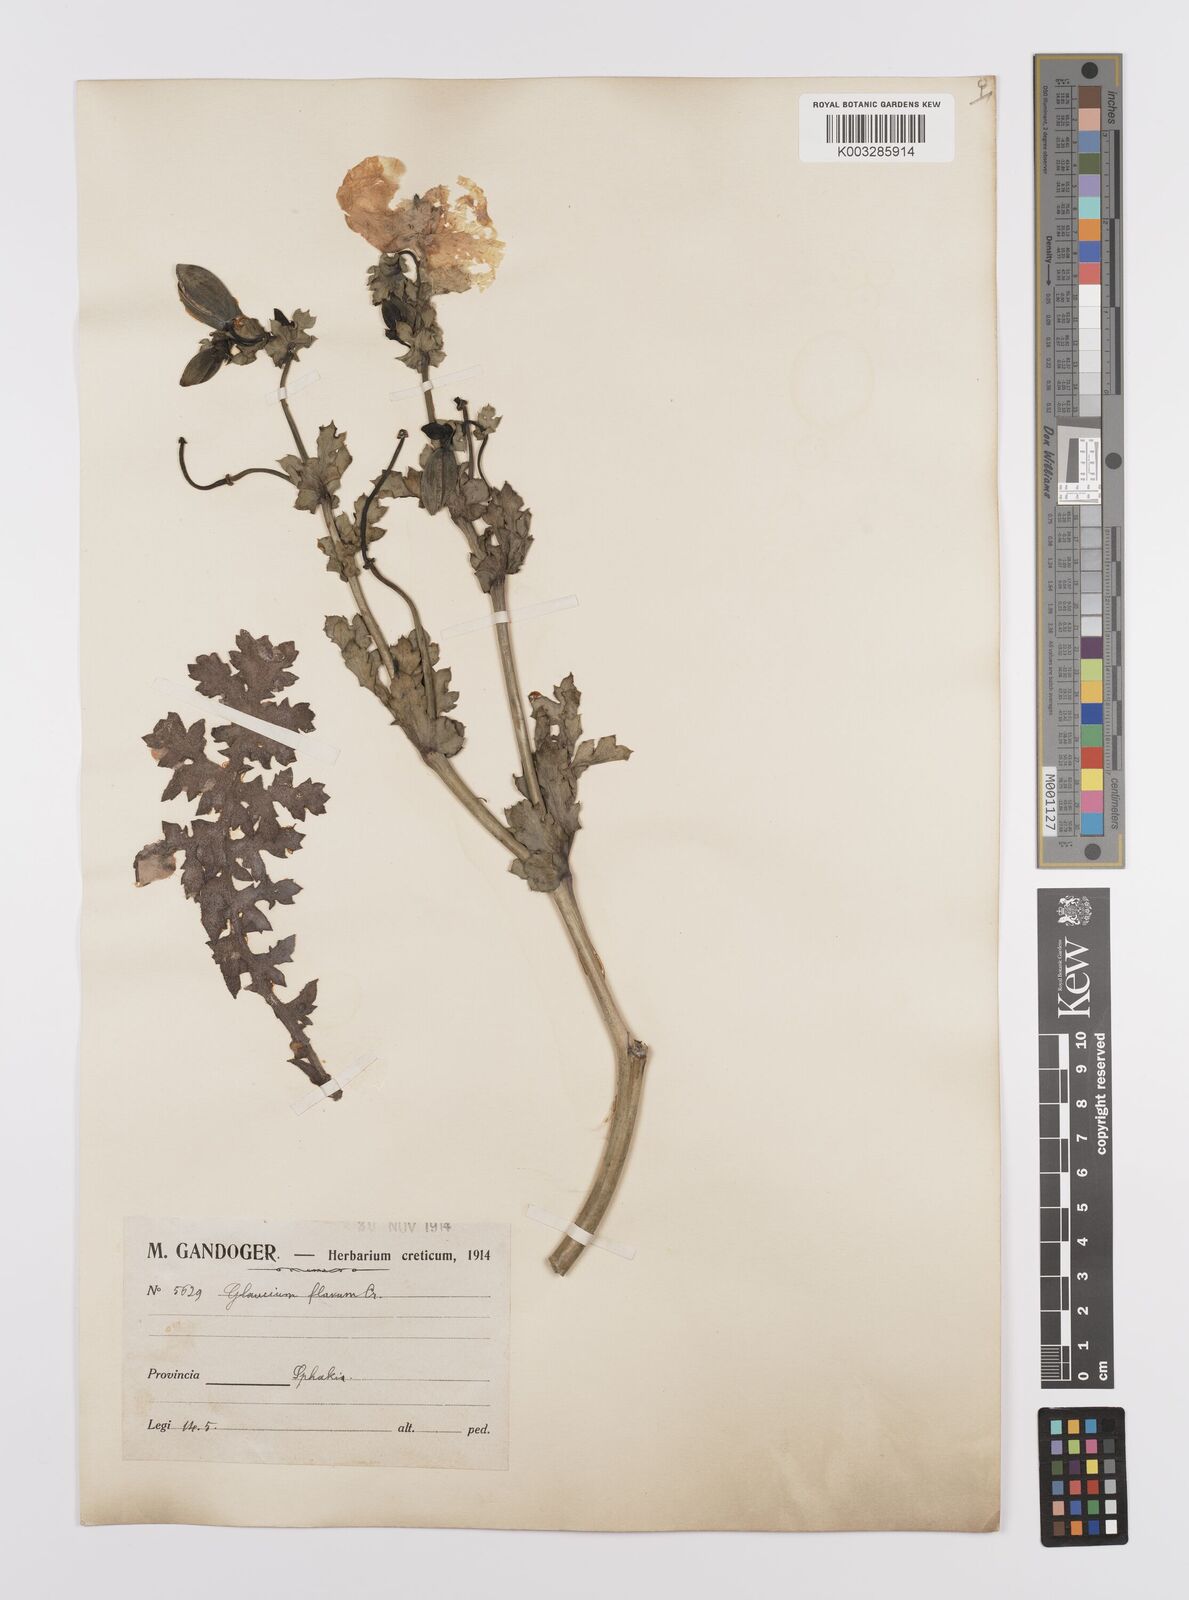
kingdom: Plantae
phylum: Tracheophyta
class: Magnoliopsida
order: Ranunculales
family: Papaveraceae
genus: Glaucium
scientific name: Glaucium flavum
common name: Yellow horned-poppy
